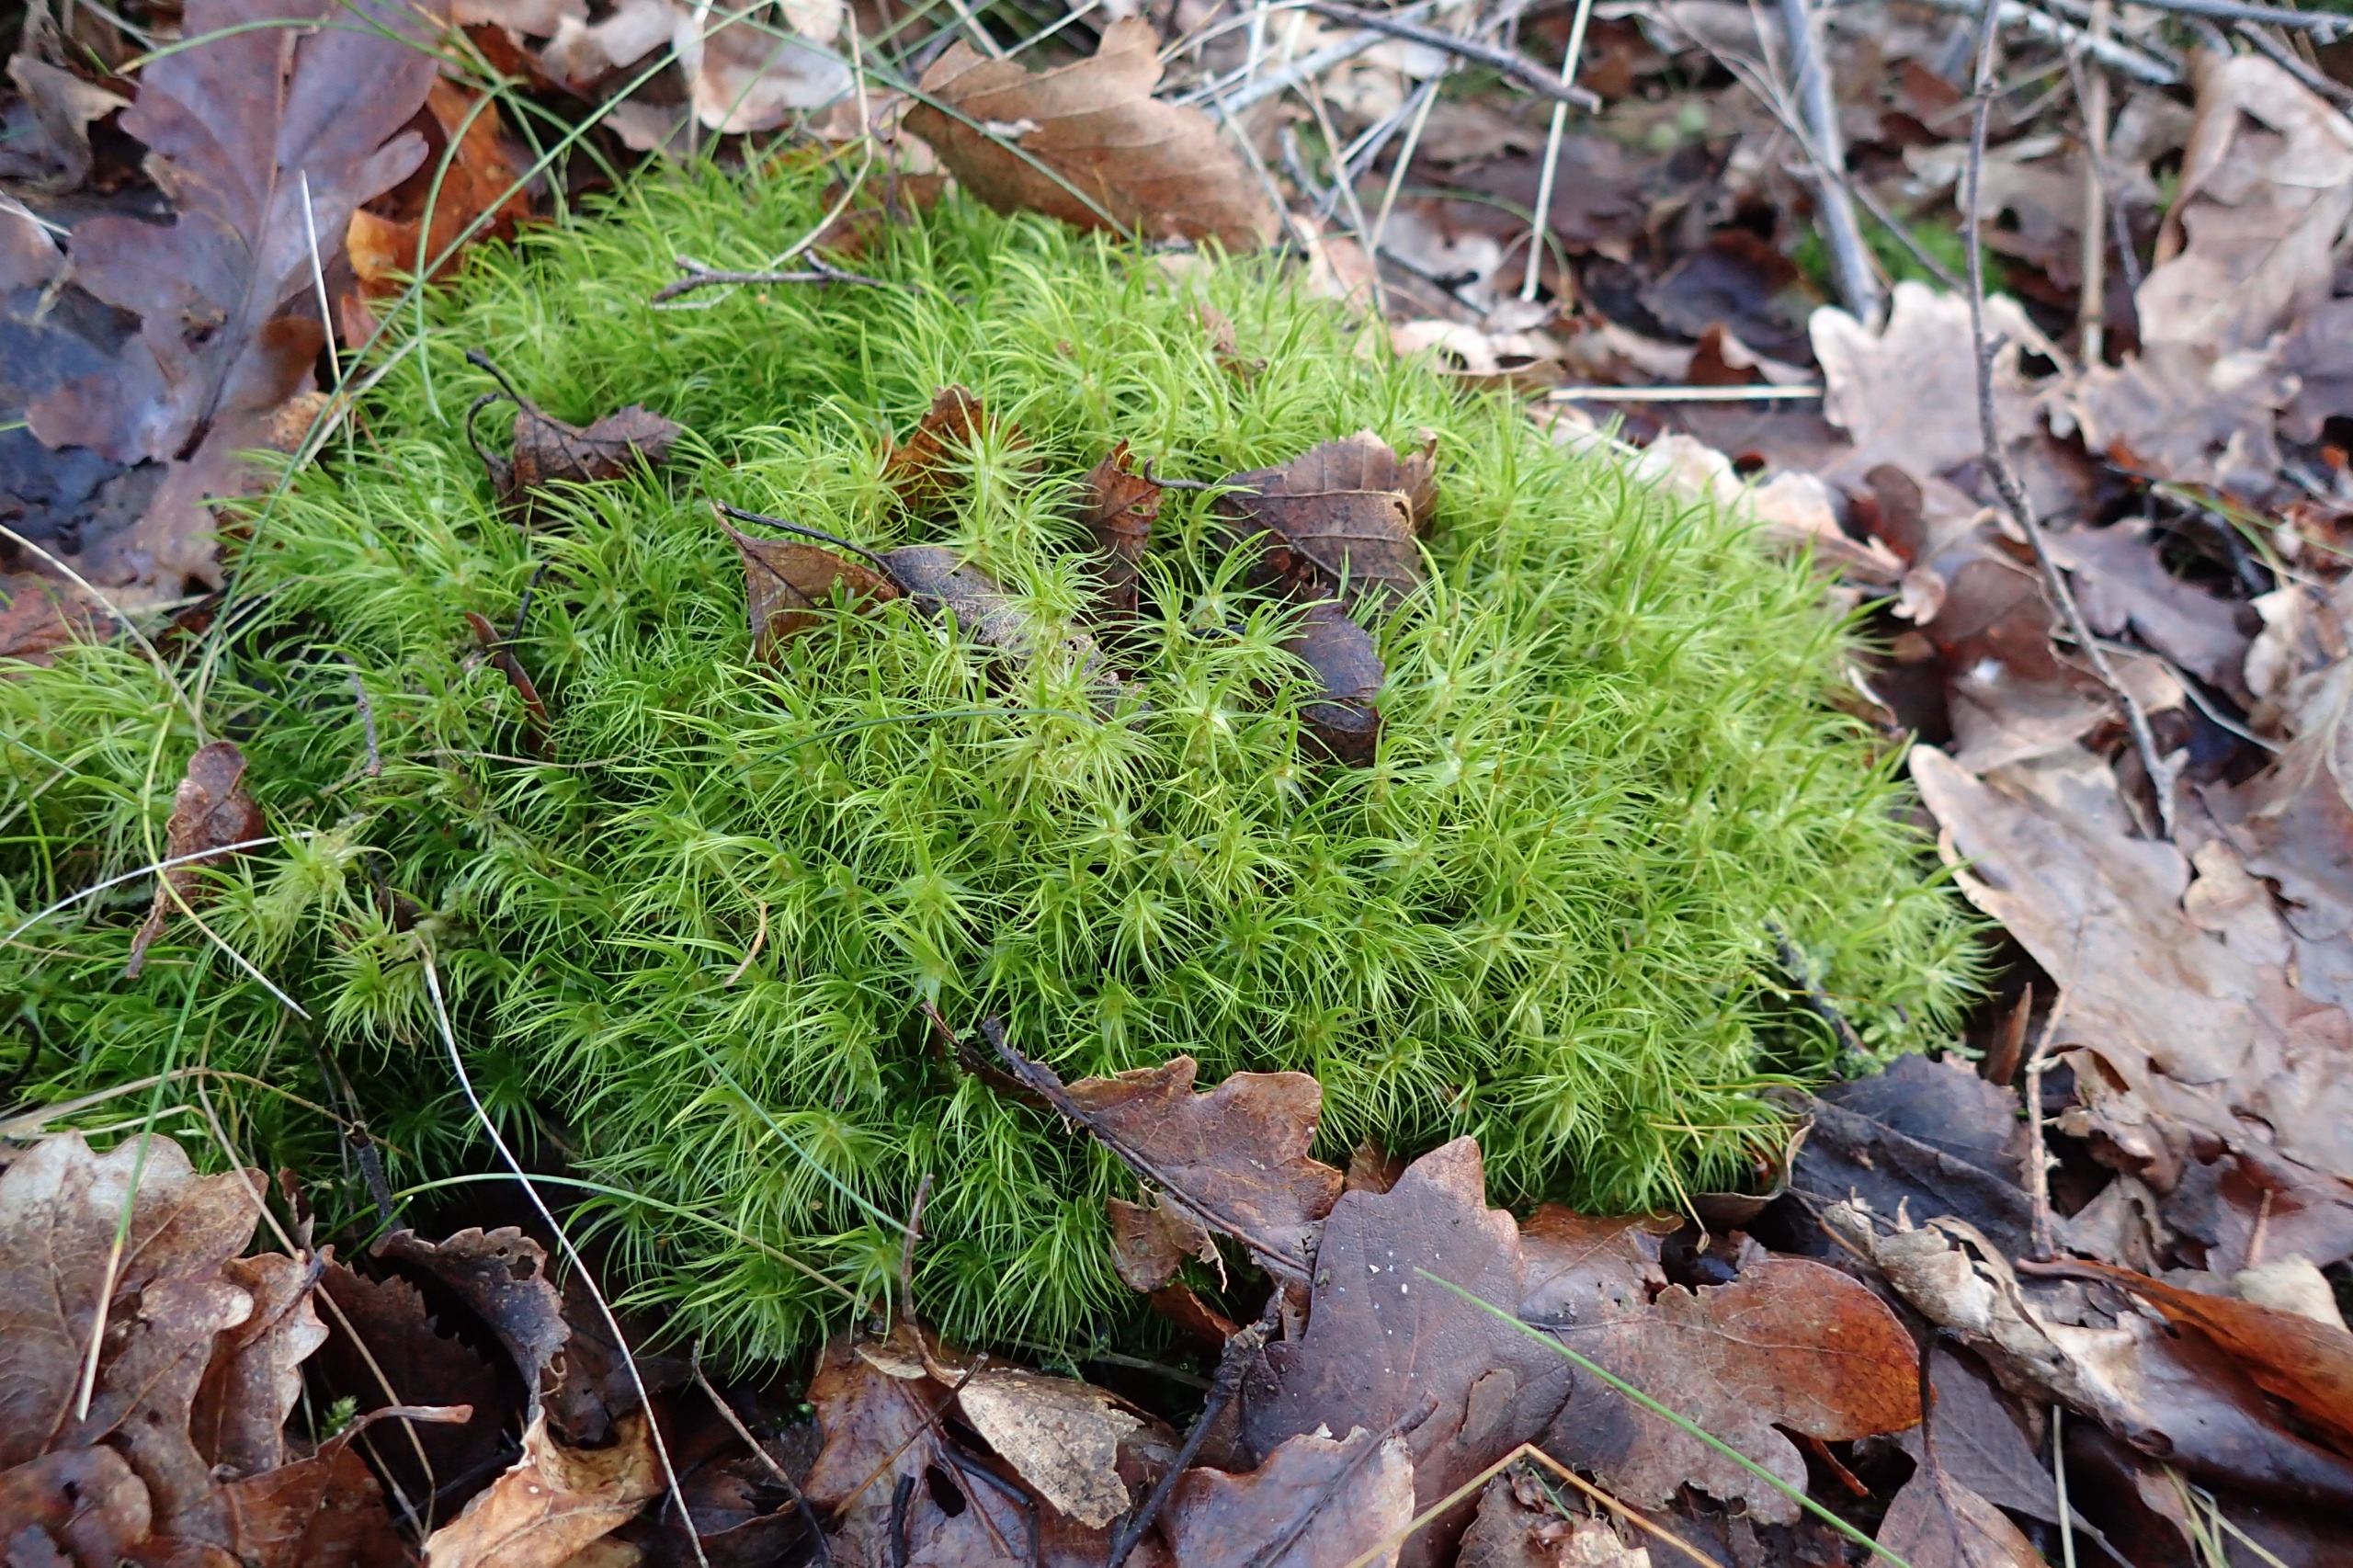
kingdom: Plantae
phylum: Bryophyta
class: Bryopsida
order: Dicranales
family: Dicranaceae
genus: Dicranum
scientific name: Dicranum majus
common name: Stor kløvtand
